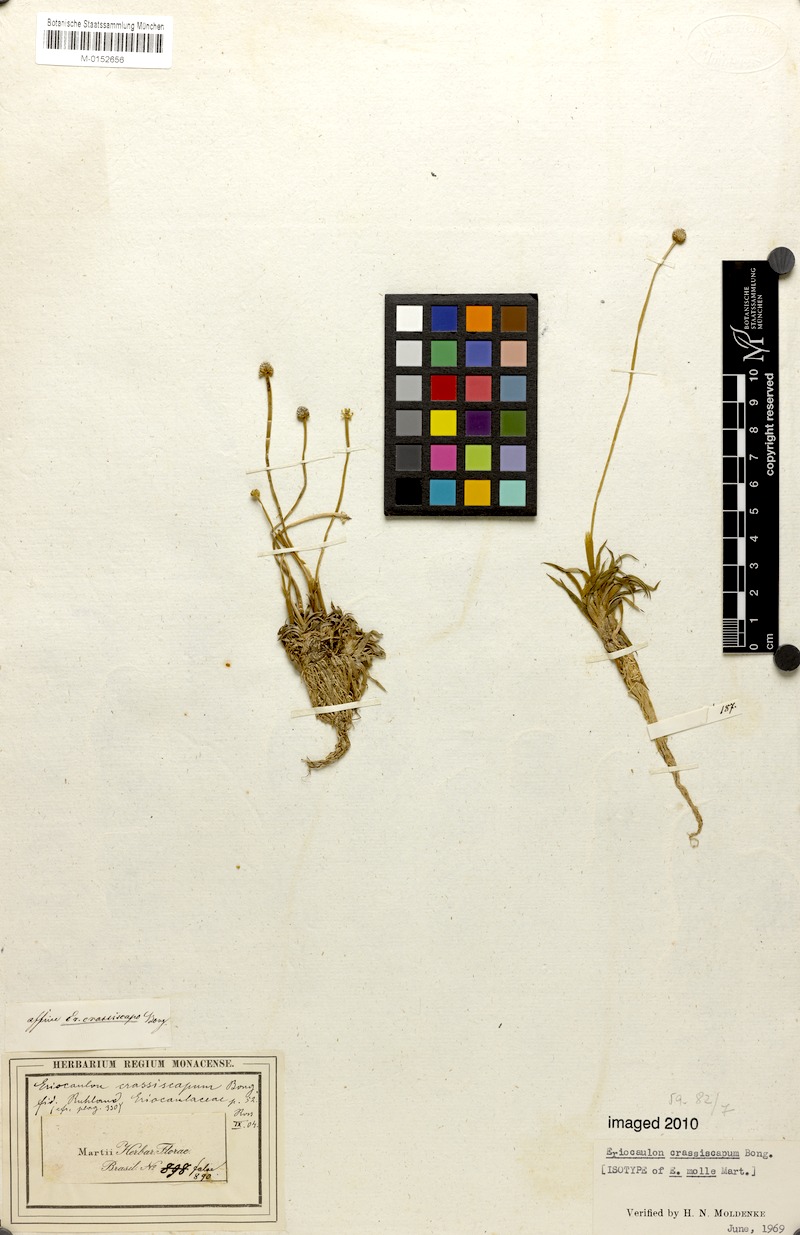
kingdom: Plantae
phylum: Tracheophyta
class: Liliopsida
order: Poales
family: Eriocaulaceae
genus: Leiothrix
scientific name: Leiothrix crassifolia
